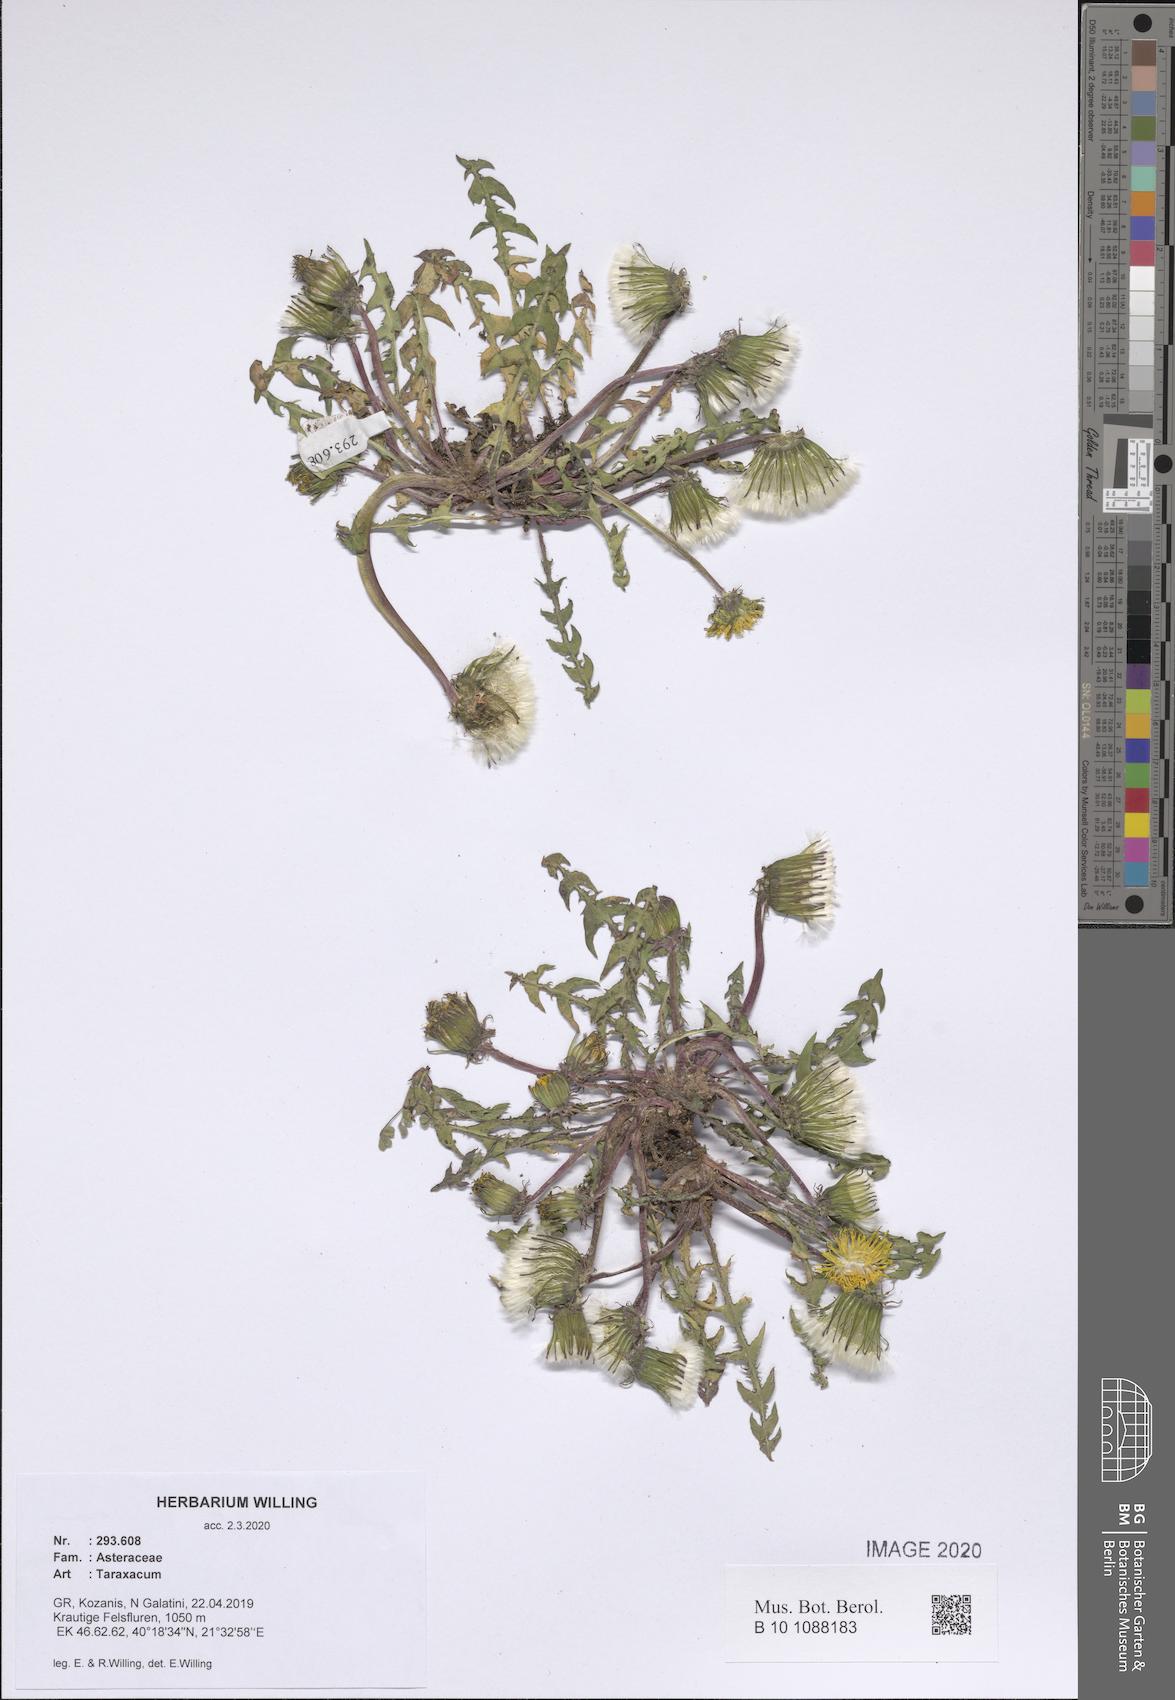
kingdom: Plantae
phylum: Tracheophyta
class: Magnoliopsida
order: Asterales
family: Asteraceae
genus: Taraxacum
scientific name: Taraxacum
